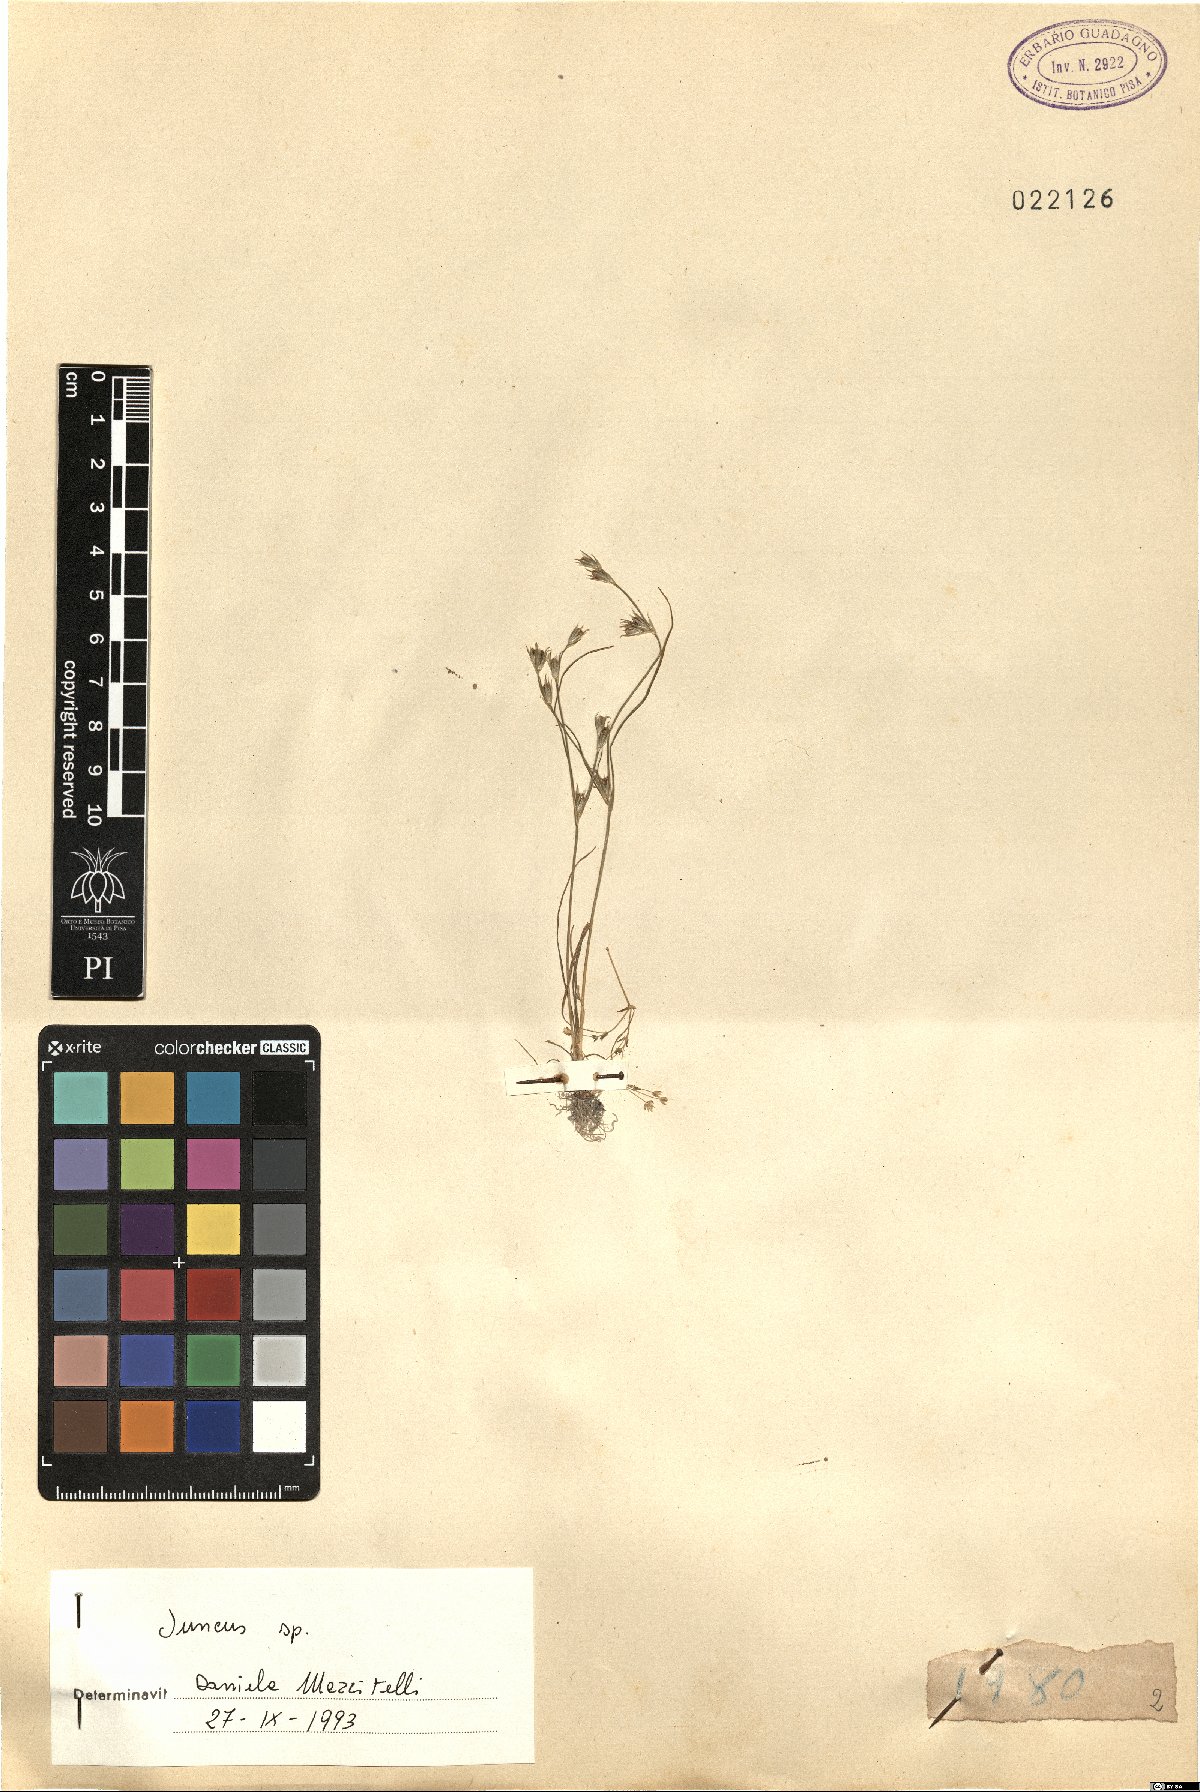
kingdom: Plantae
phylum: Tracheophyta
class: Liliopsida
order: Poales
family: Juncaceae
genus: Juncus
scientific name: Juncus
